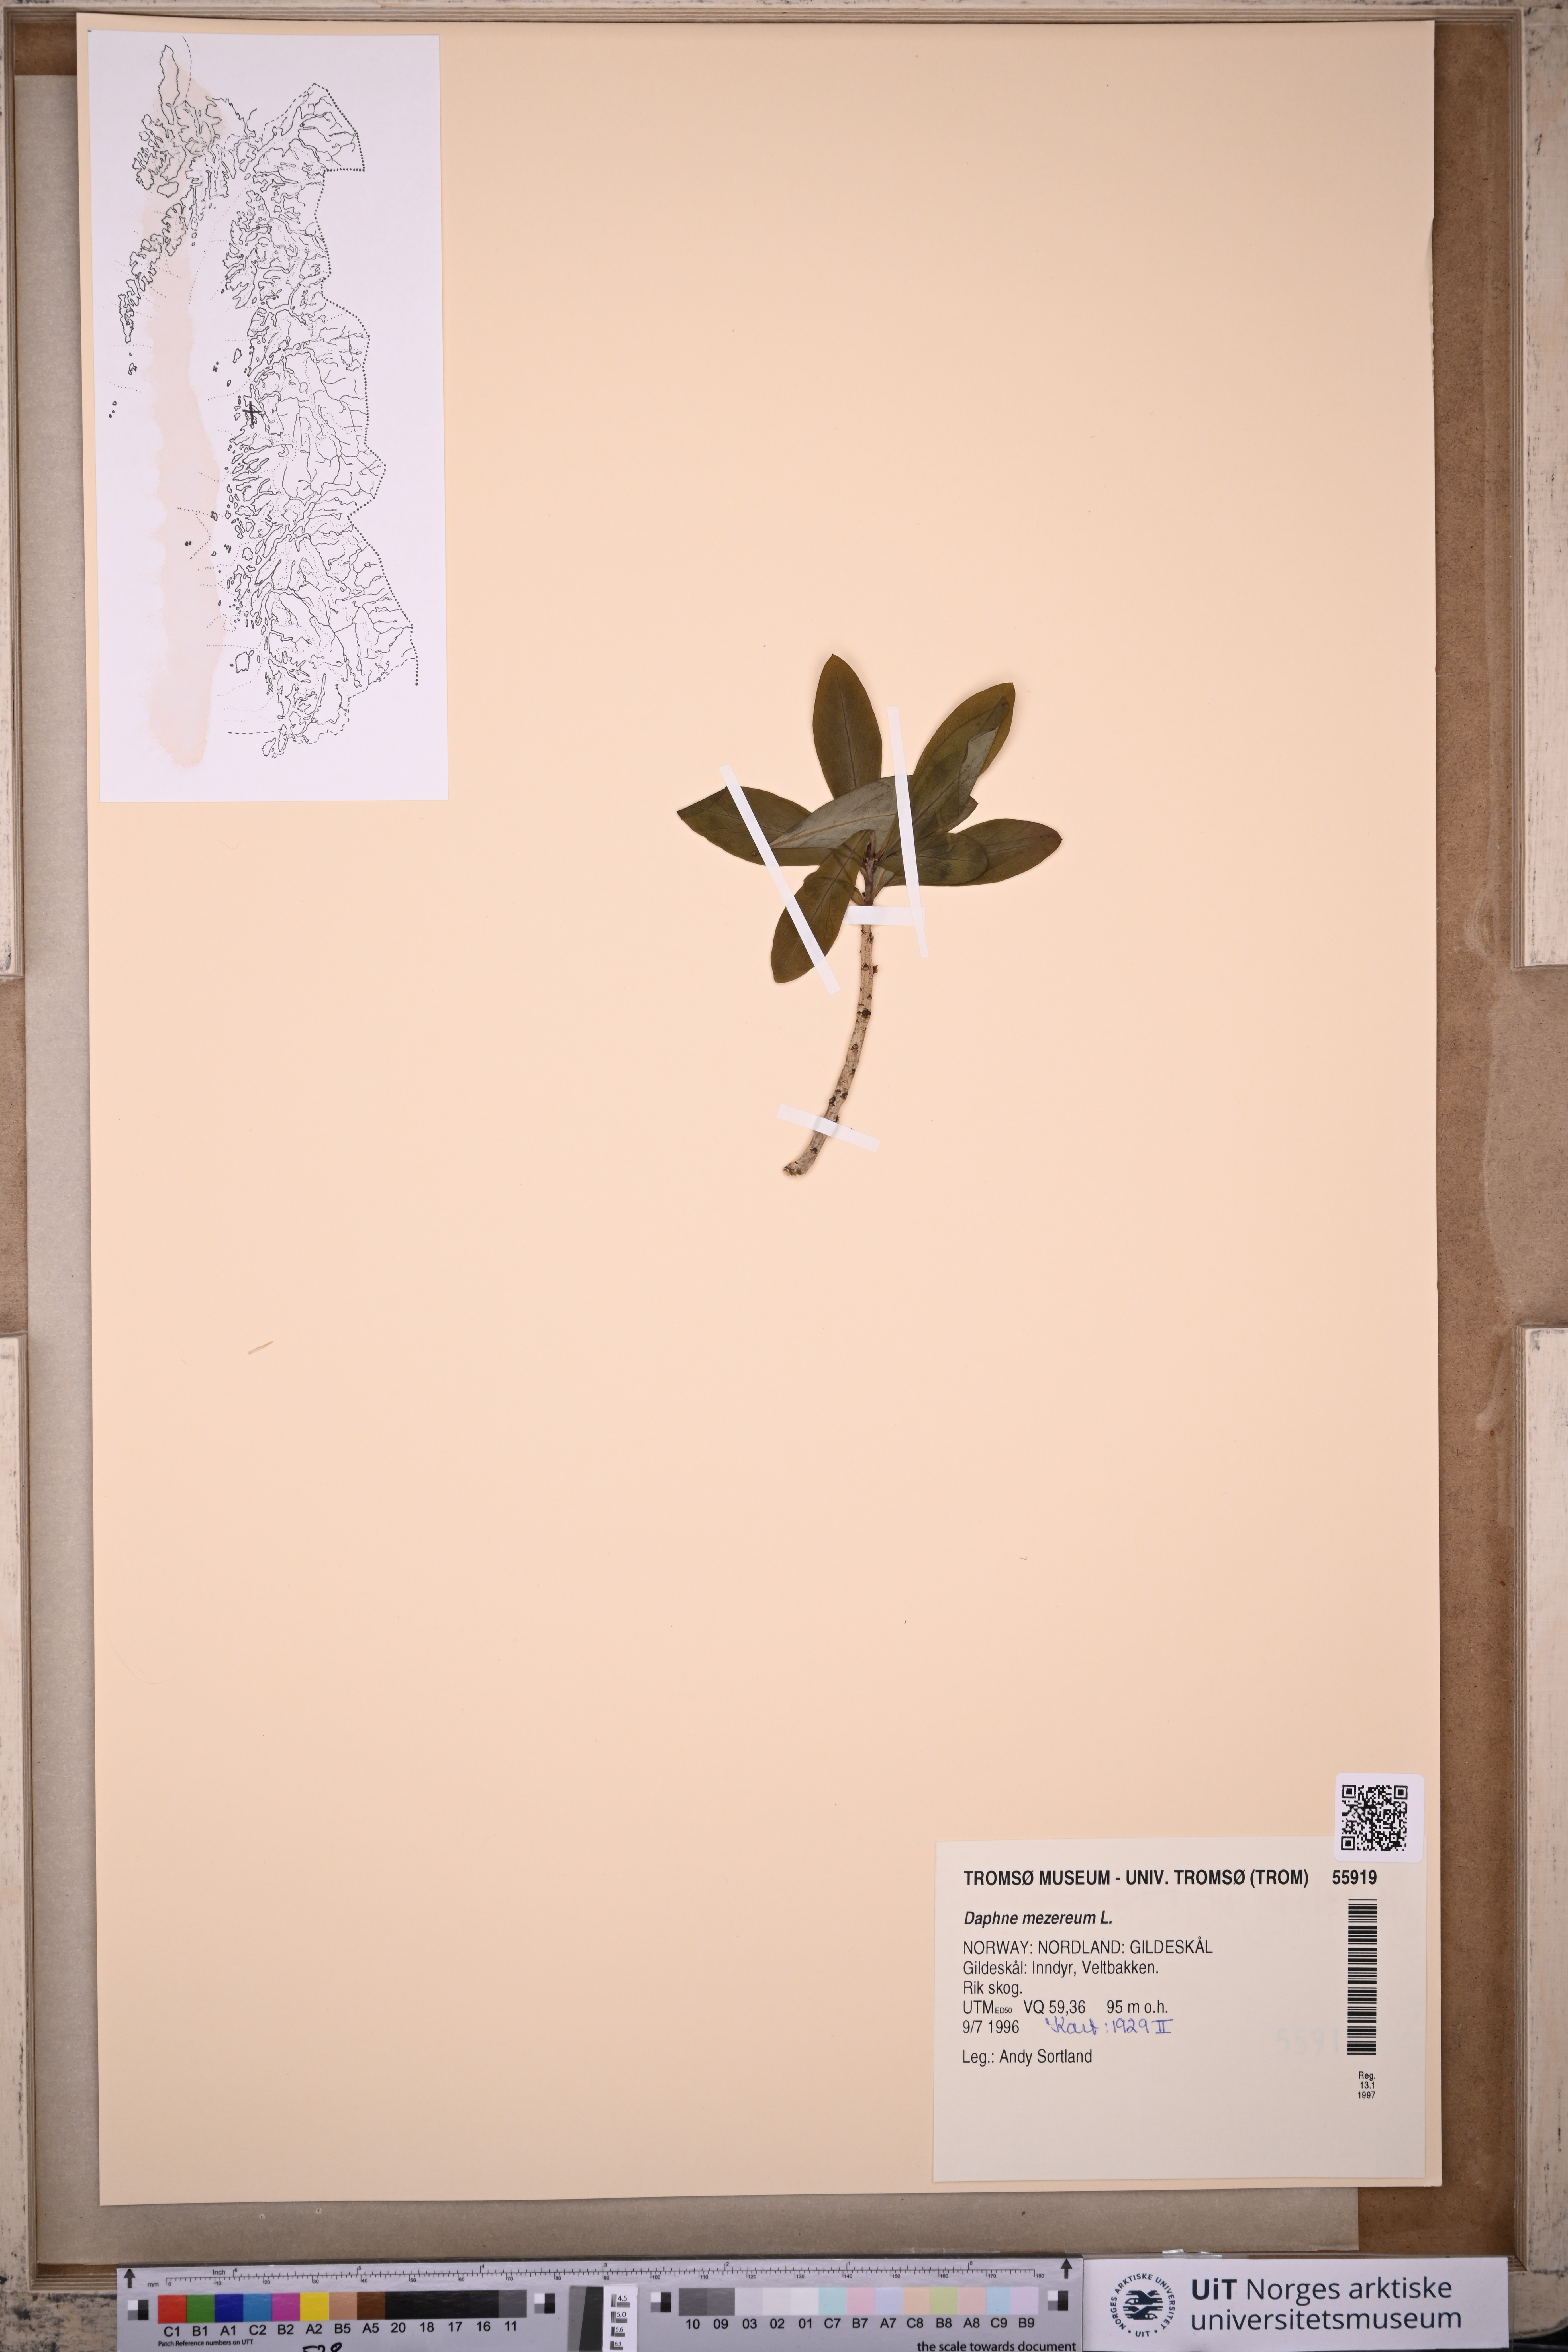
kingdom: Plantae
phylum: Tracheophyta
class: Magnoliopsida
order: Malvales
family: Thymelaeaceae
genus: Daphne
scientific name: Daphne mezereum
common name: Mezereon
